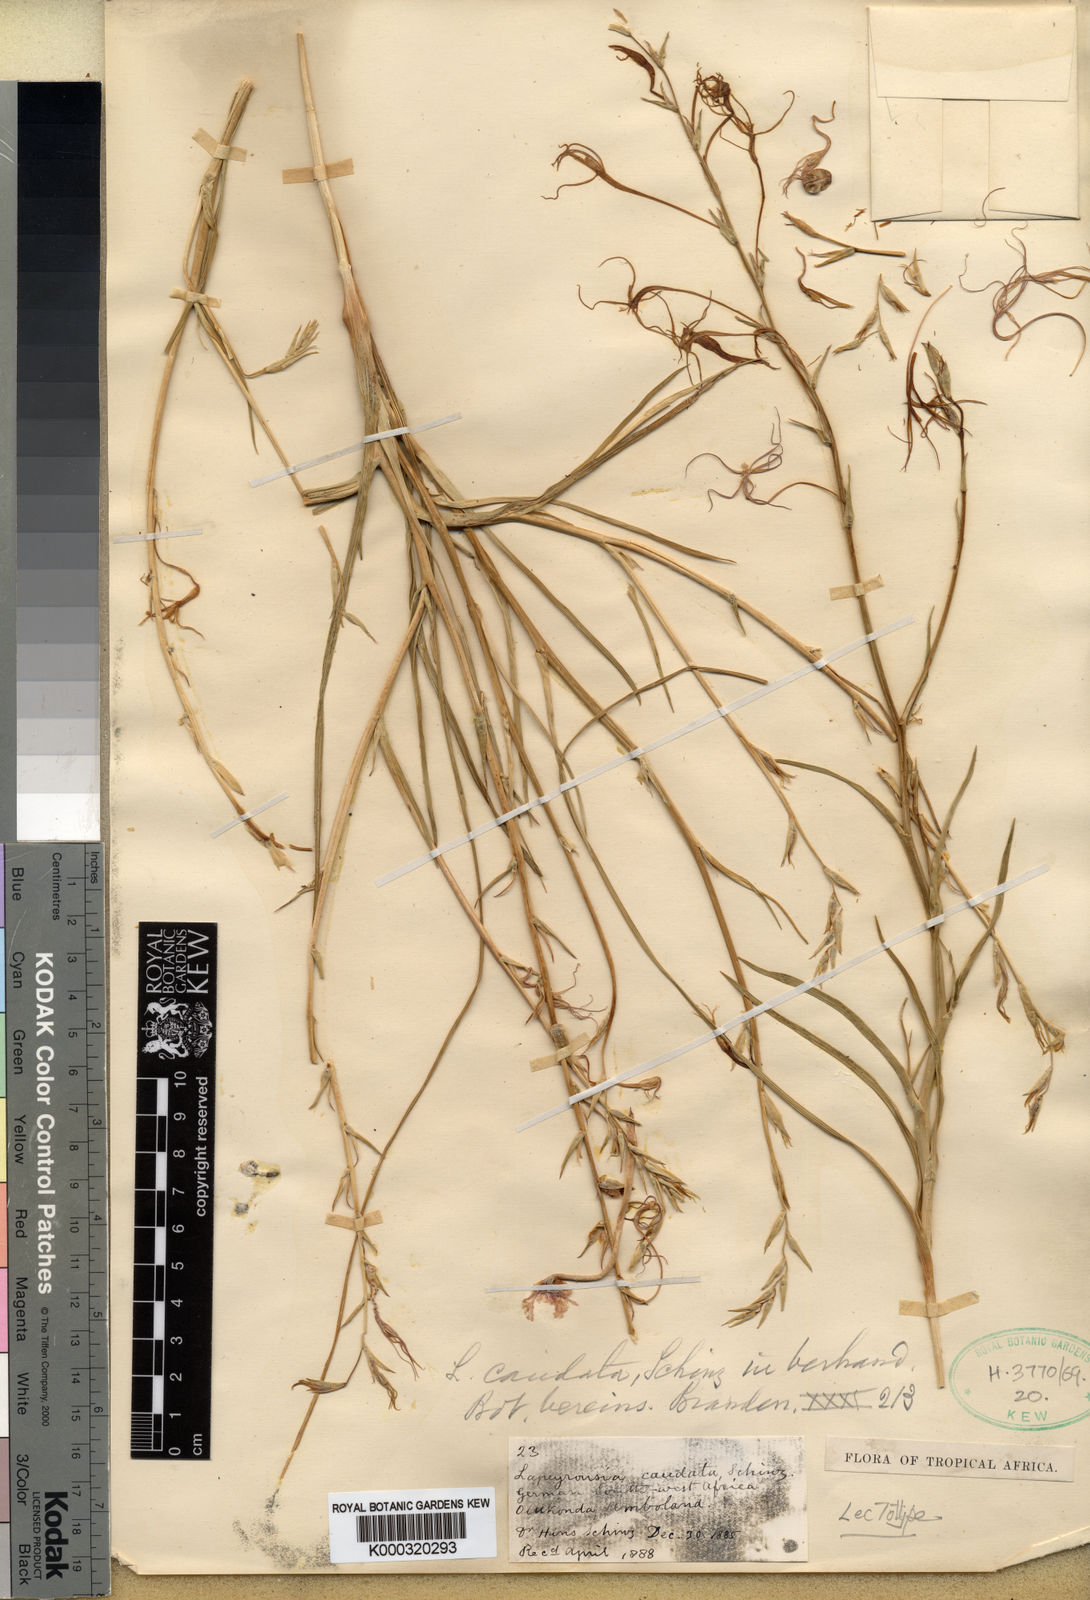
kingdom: Plantae
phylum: Tracheophyta
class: Liliopsida
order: Asparagales
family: Iridaceae
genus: Lapeirousia
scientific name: Lapeirousia caudata
